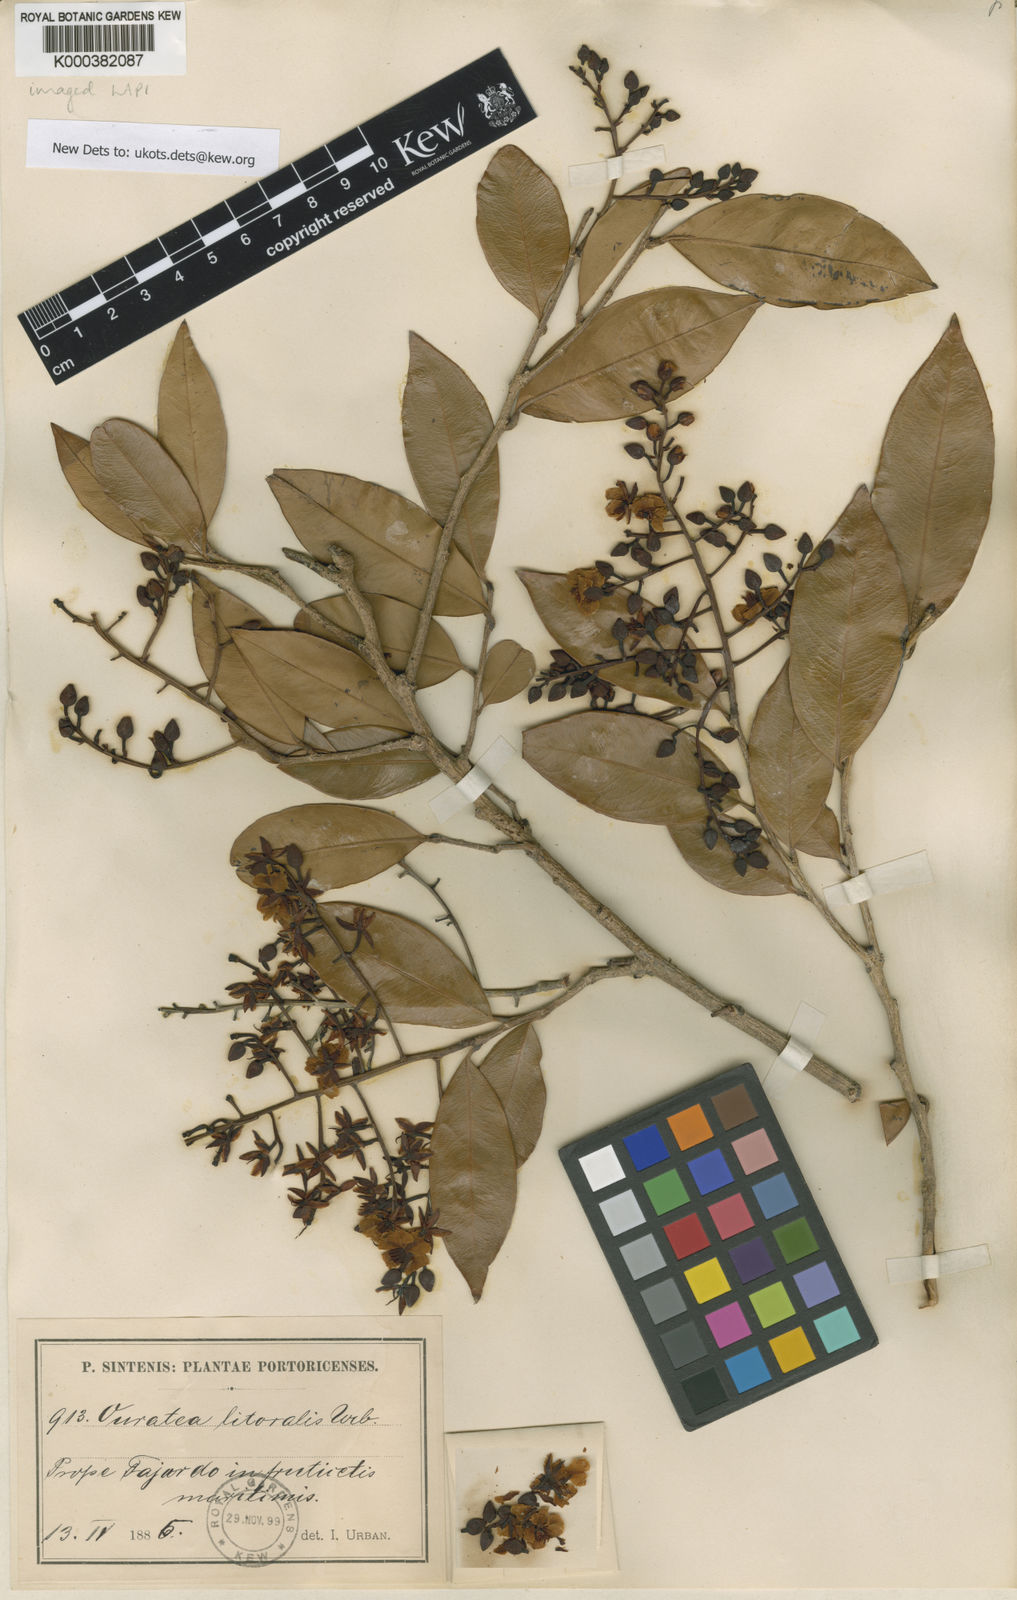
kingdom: Plantae
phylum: Tracheophyta
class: Magnoliopsida
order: Malpighiales
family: Ochnaceae
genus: Ouratea
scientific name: Ouratea litoralis
